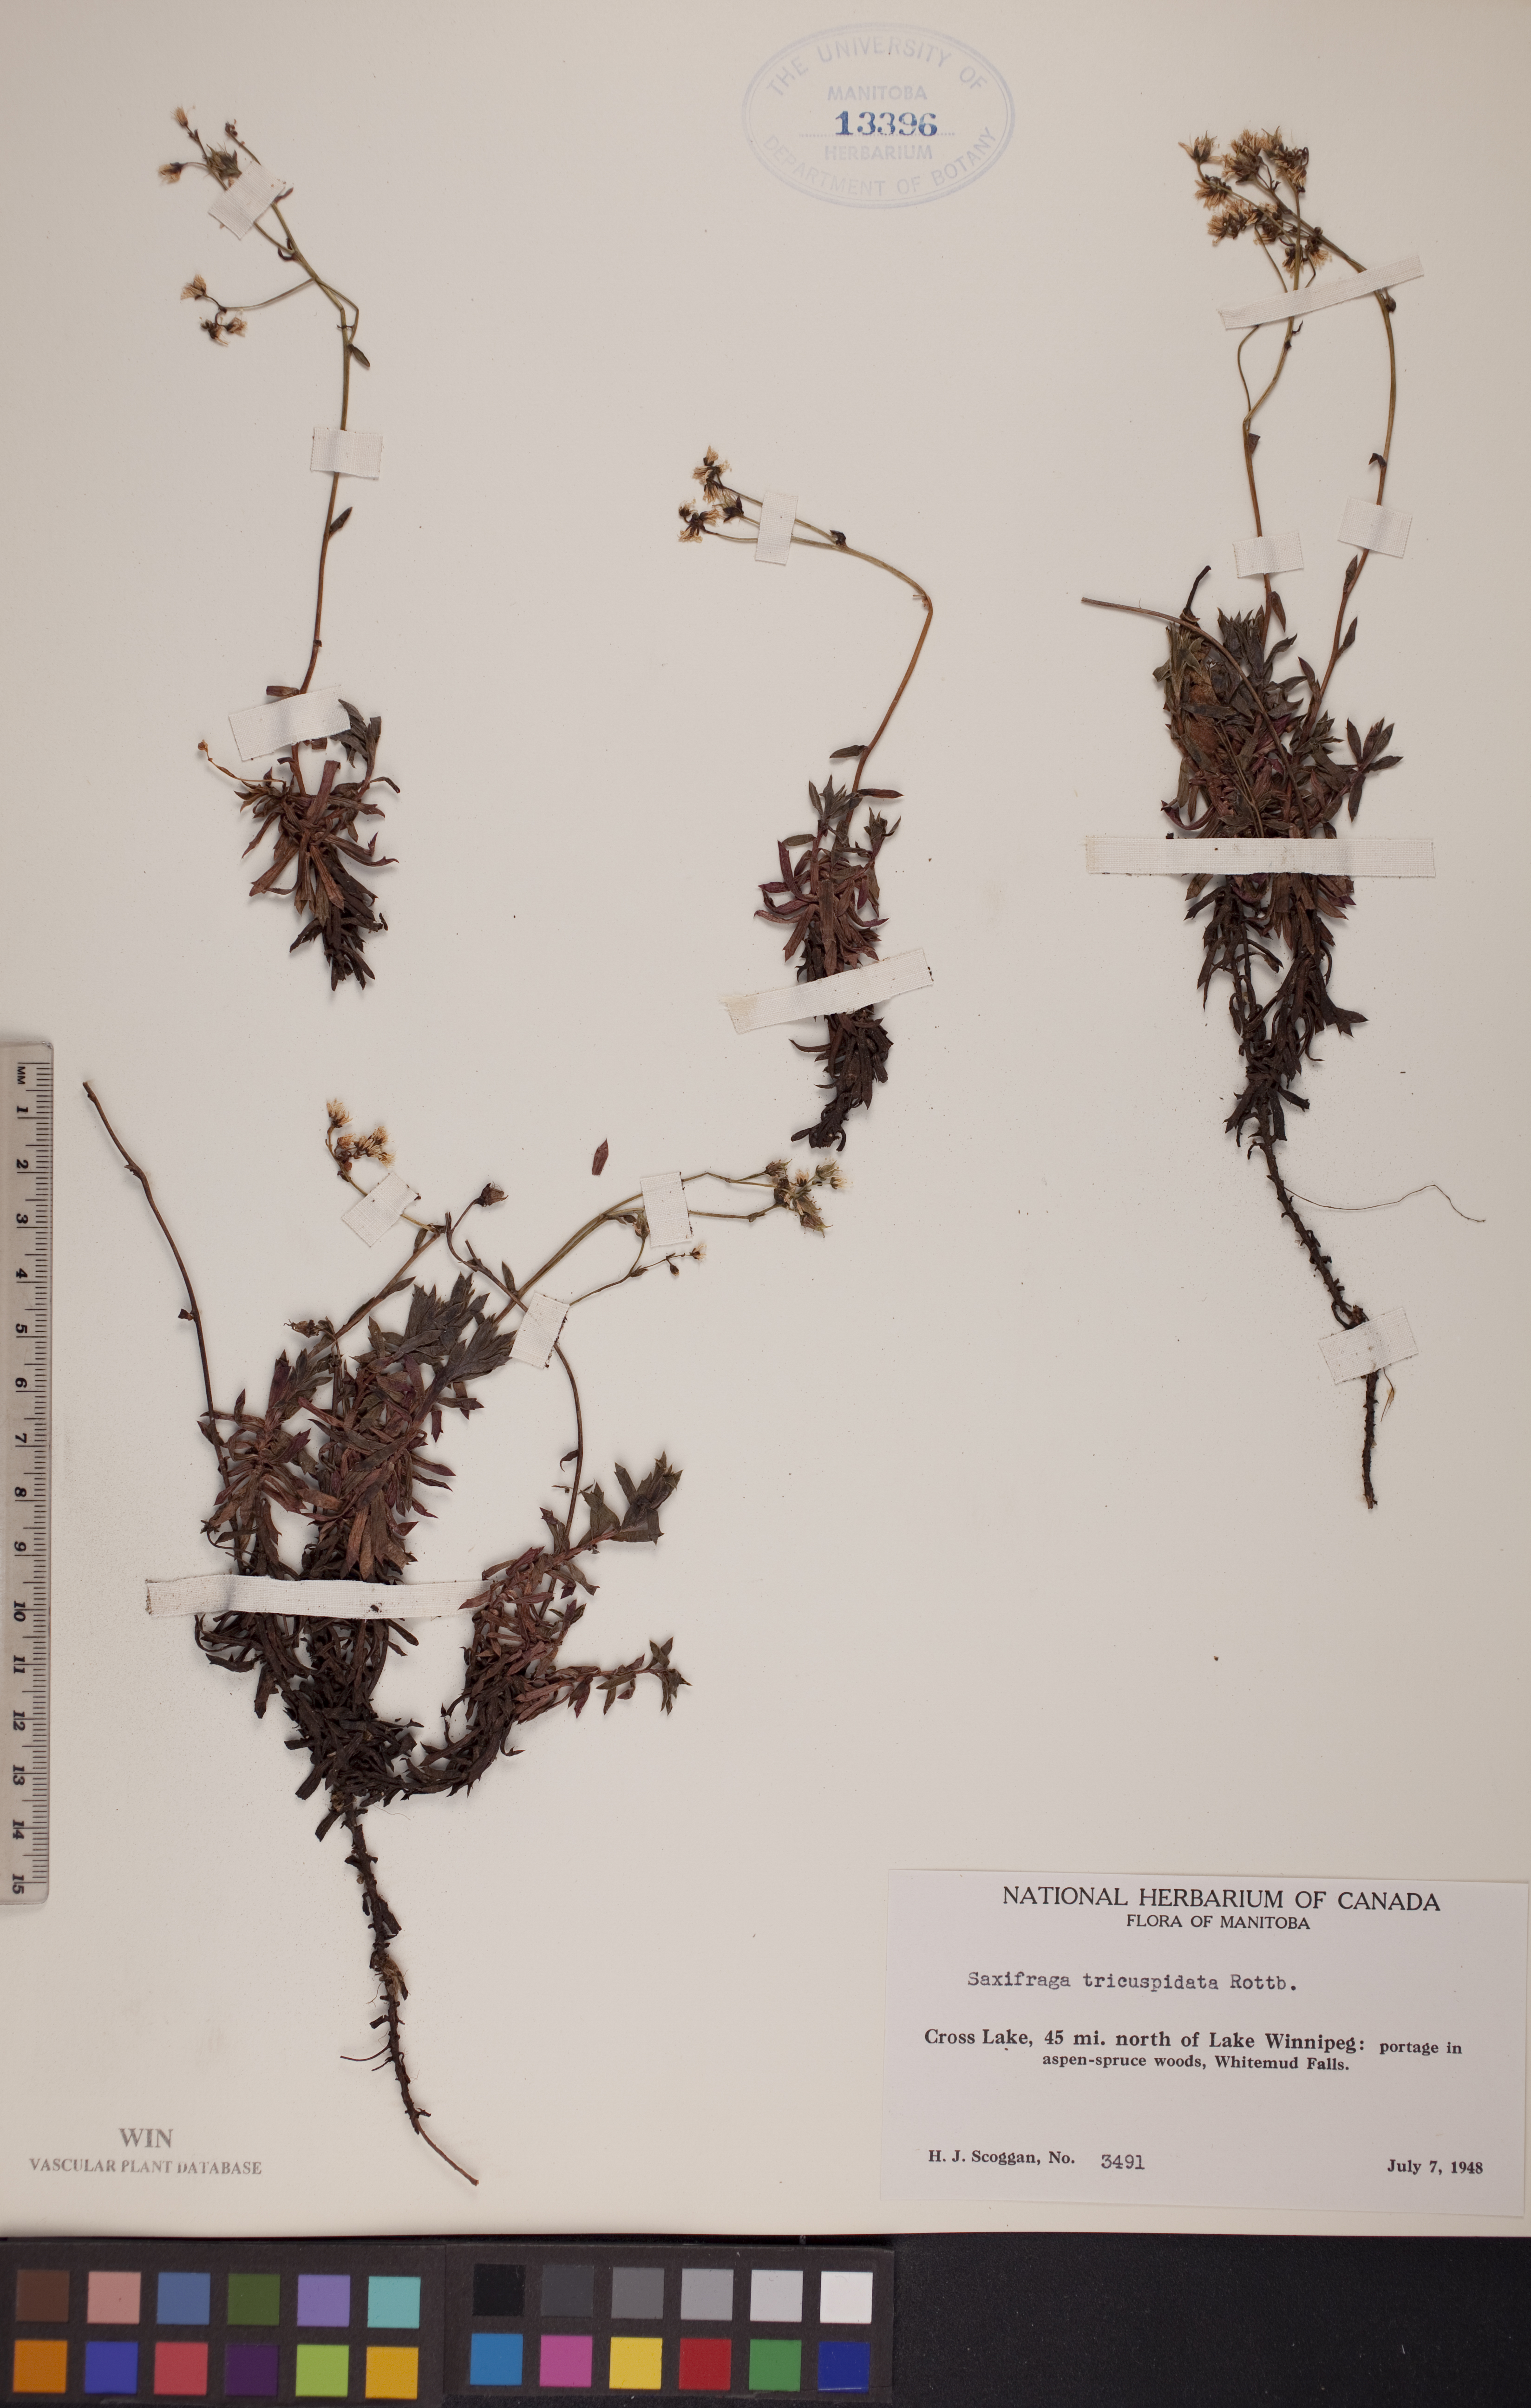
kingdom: Plantae
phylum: Tracheophyta
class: Magnoliopsida
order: Saxifragales
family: Saxifragaceae
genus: Saxifraga
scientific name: Saxifraga tricuspidata
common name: Prickly saxifrage
